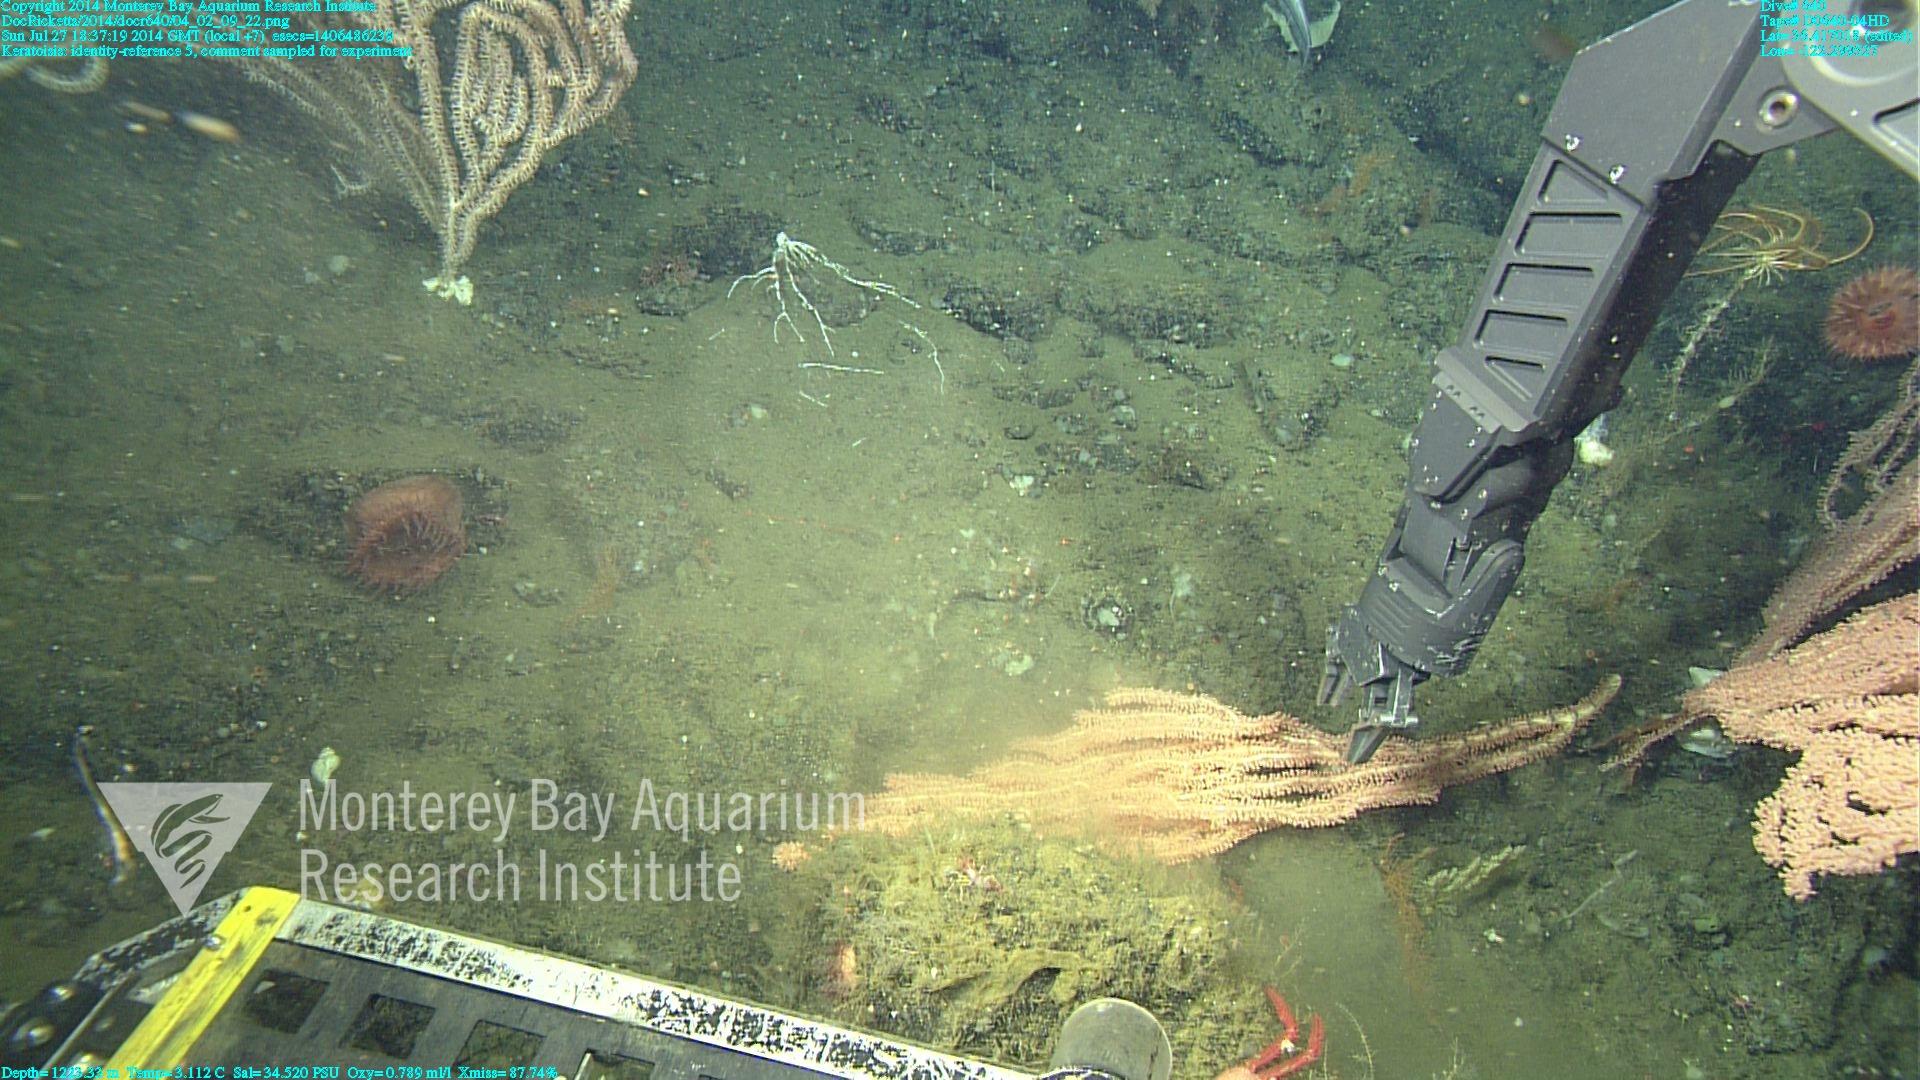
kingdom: Animalia
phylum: Cnidaria
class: Anthozoa
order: Scleralcyonacea
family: Keratoisididae
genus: Keratoisis
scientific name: Keratoisis
